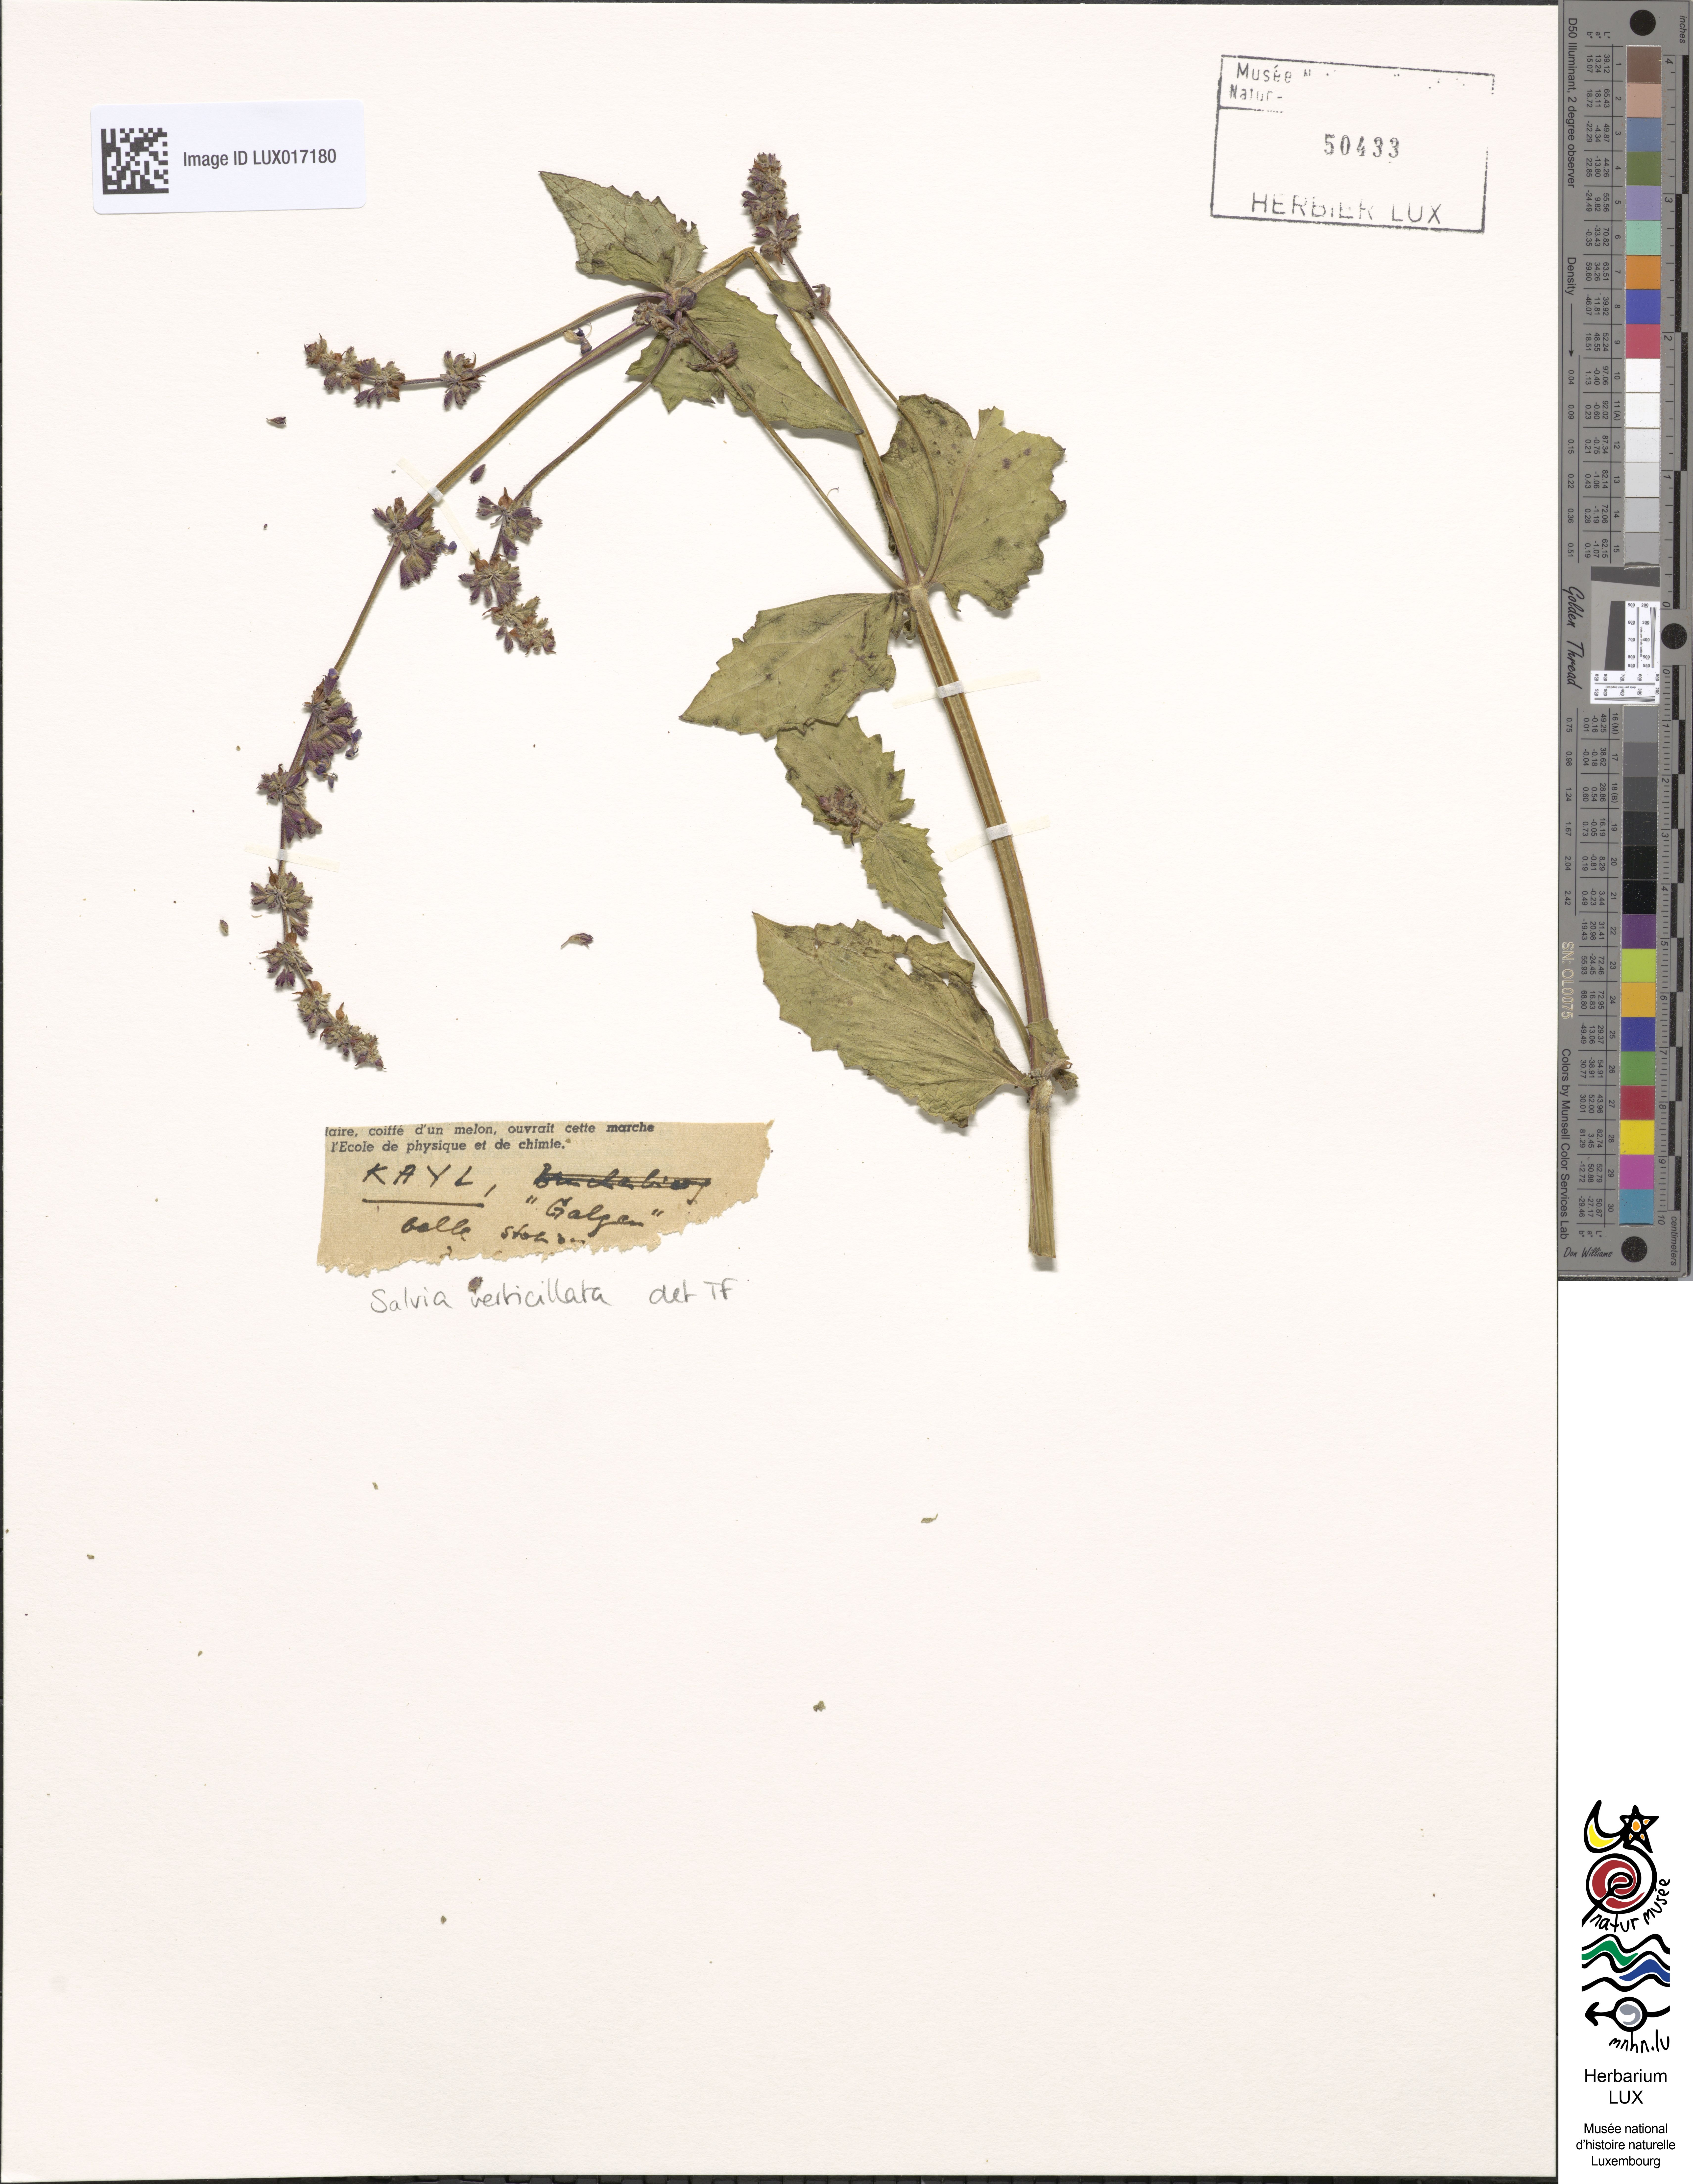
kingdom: Plantae
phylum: Tracheophyta
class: Magnoliopsida
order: Lamiales
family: Lamiaceae
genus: Salvia
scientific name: Salvia verticillata
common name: Whorled clary
